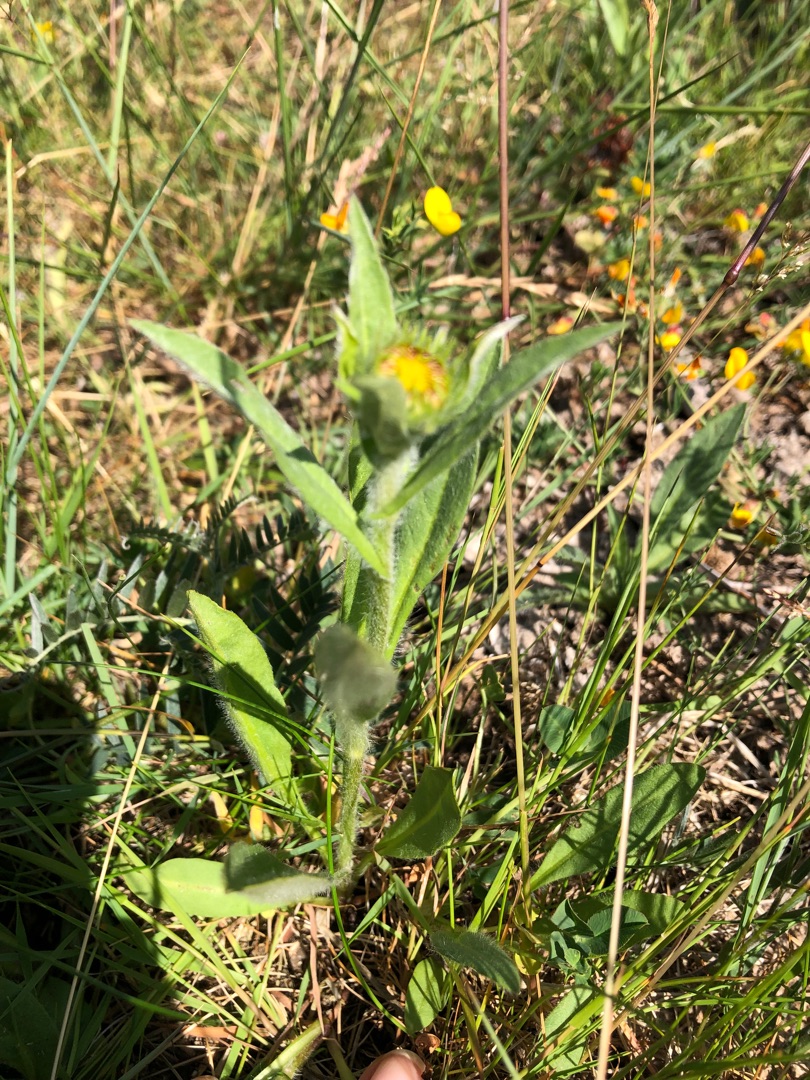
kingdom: Plantae
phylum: Tracheophyta
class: Magnoliopsida
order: Asterales
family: Asteraceae
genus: Pentanema
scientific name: Pentanema britannicum
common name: Soløje-alant
